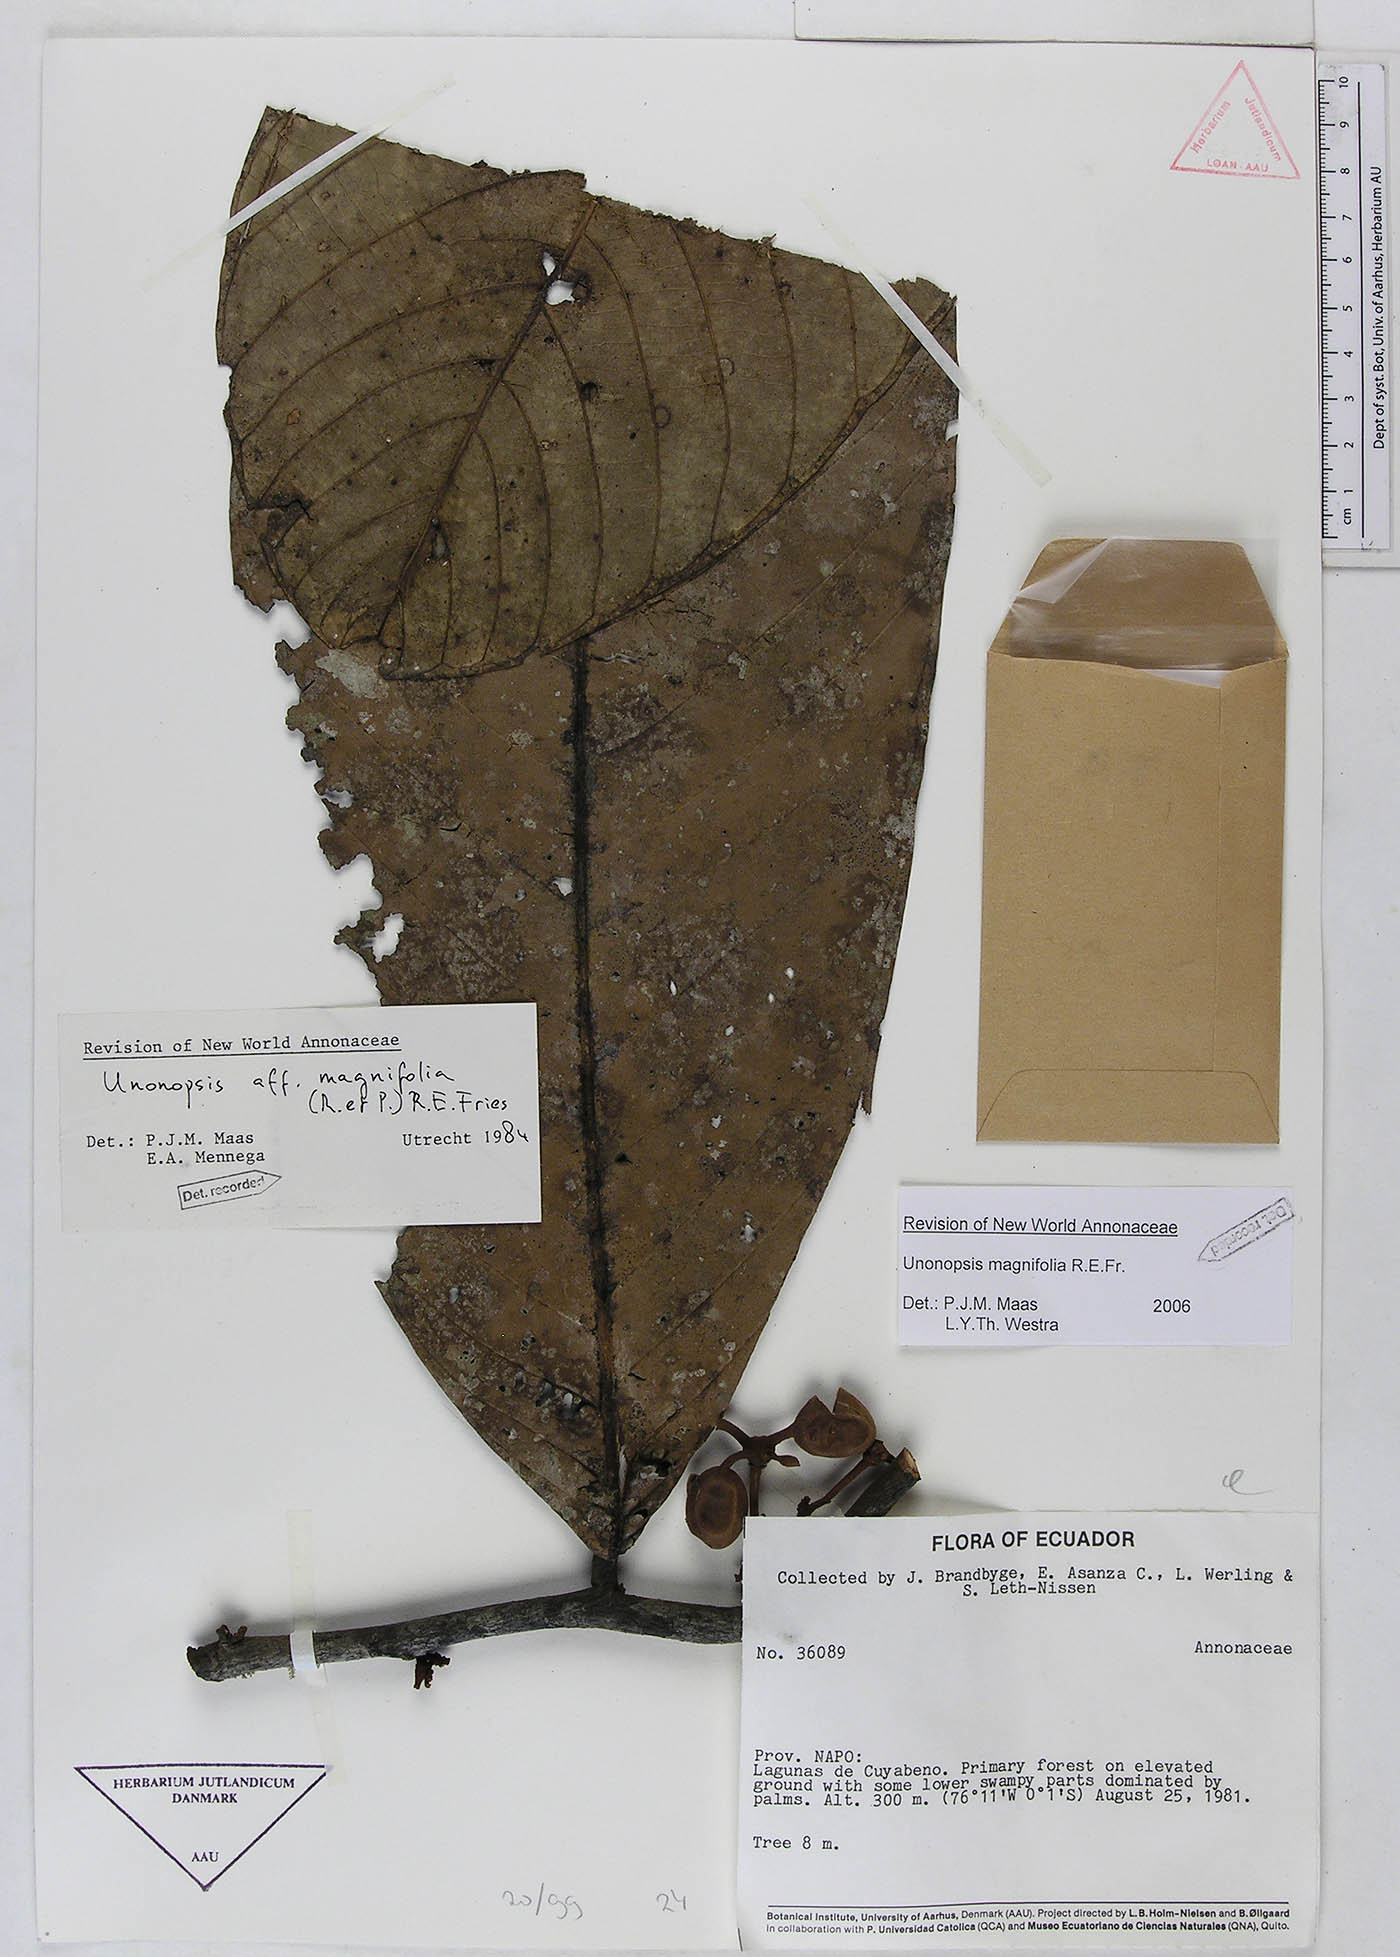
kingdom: Plantae
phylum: Tracheophyta
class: Magnoliopsida
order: Magnoliales
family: Annonaceae
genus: Unonopsis
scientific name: Unonopsis magnifolia
